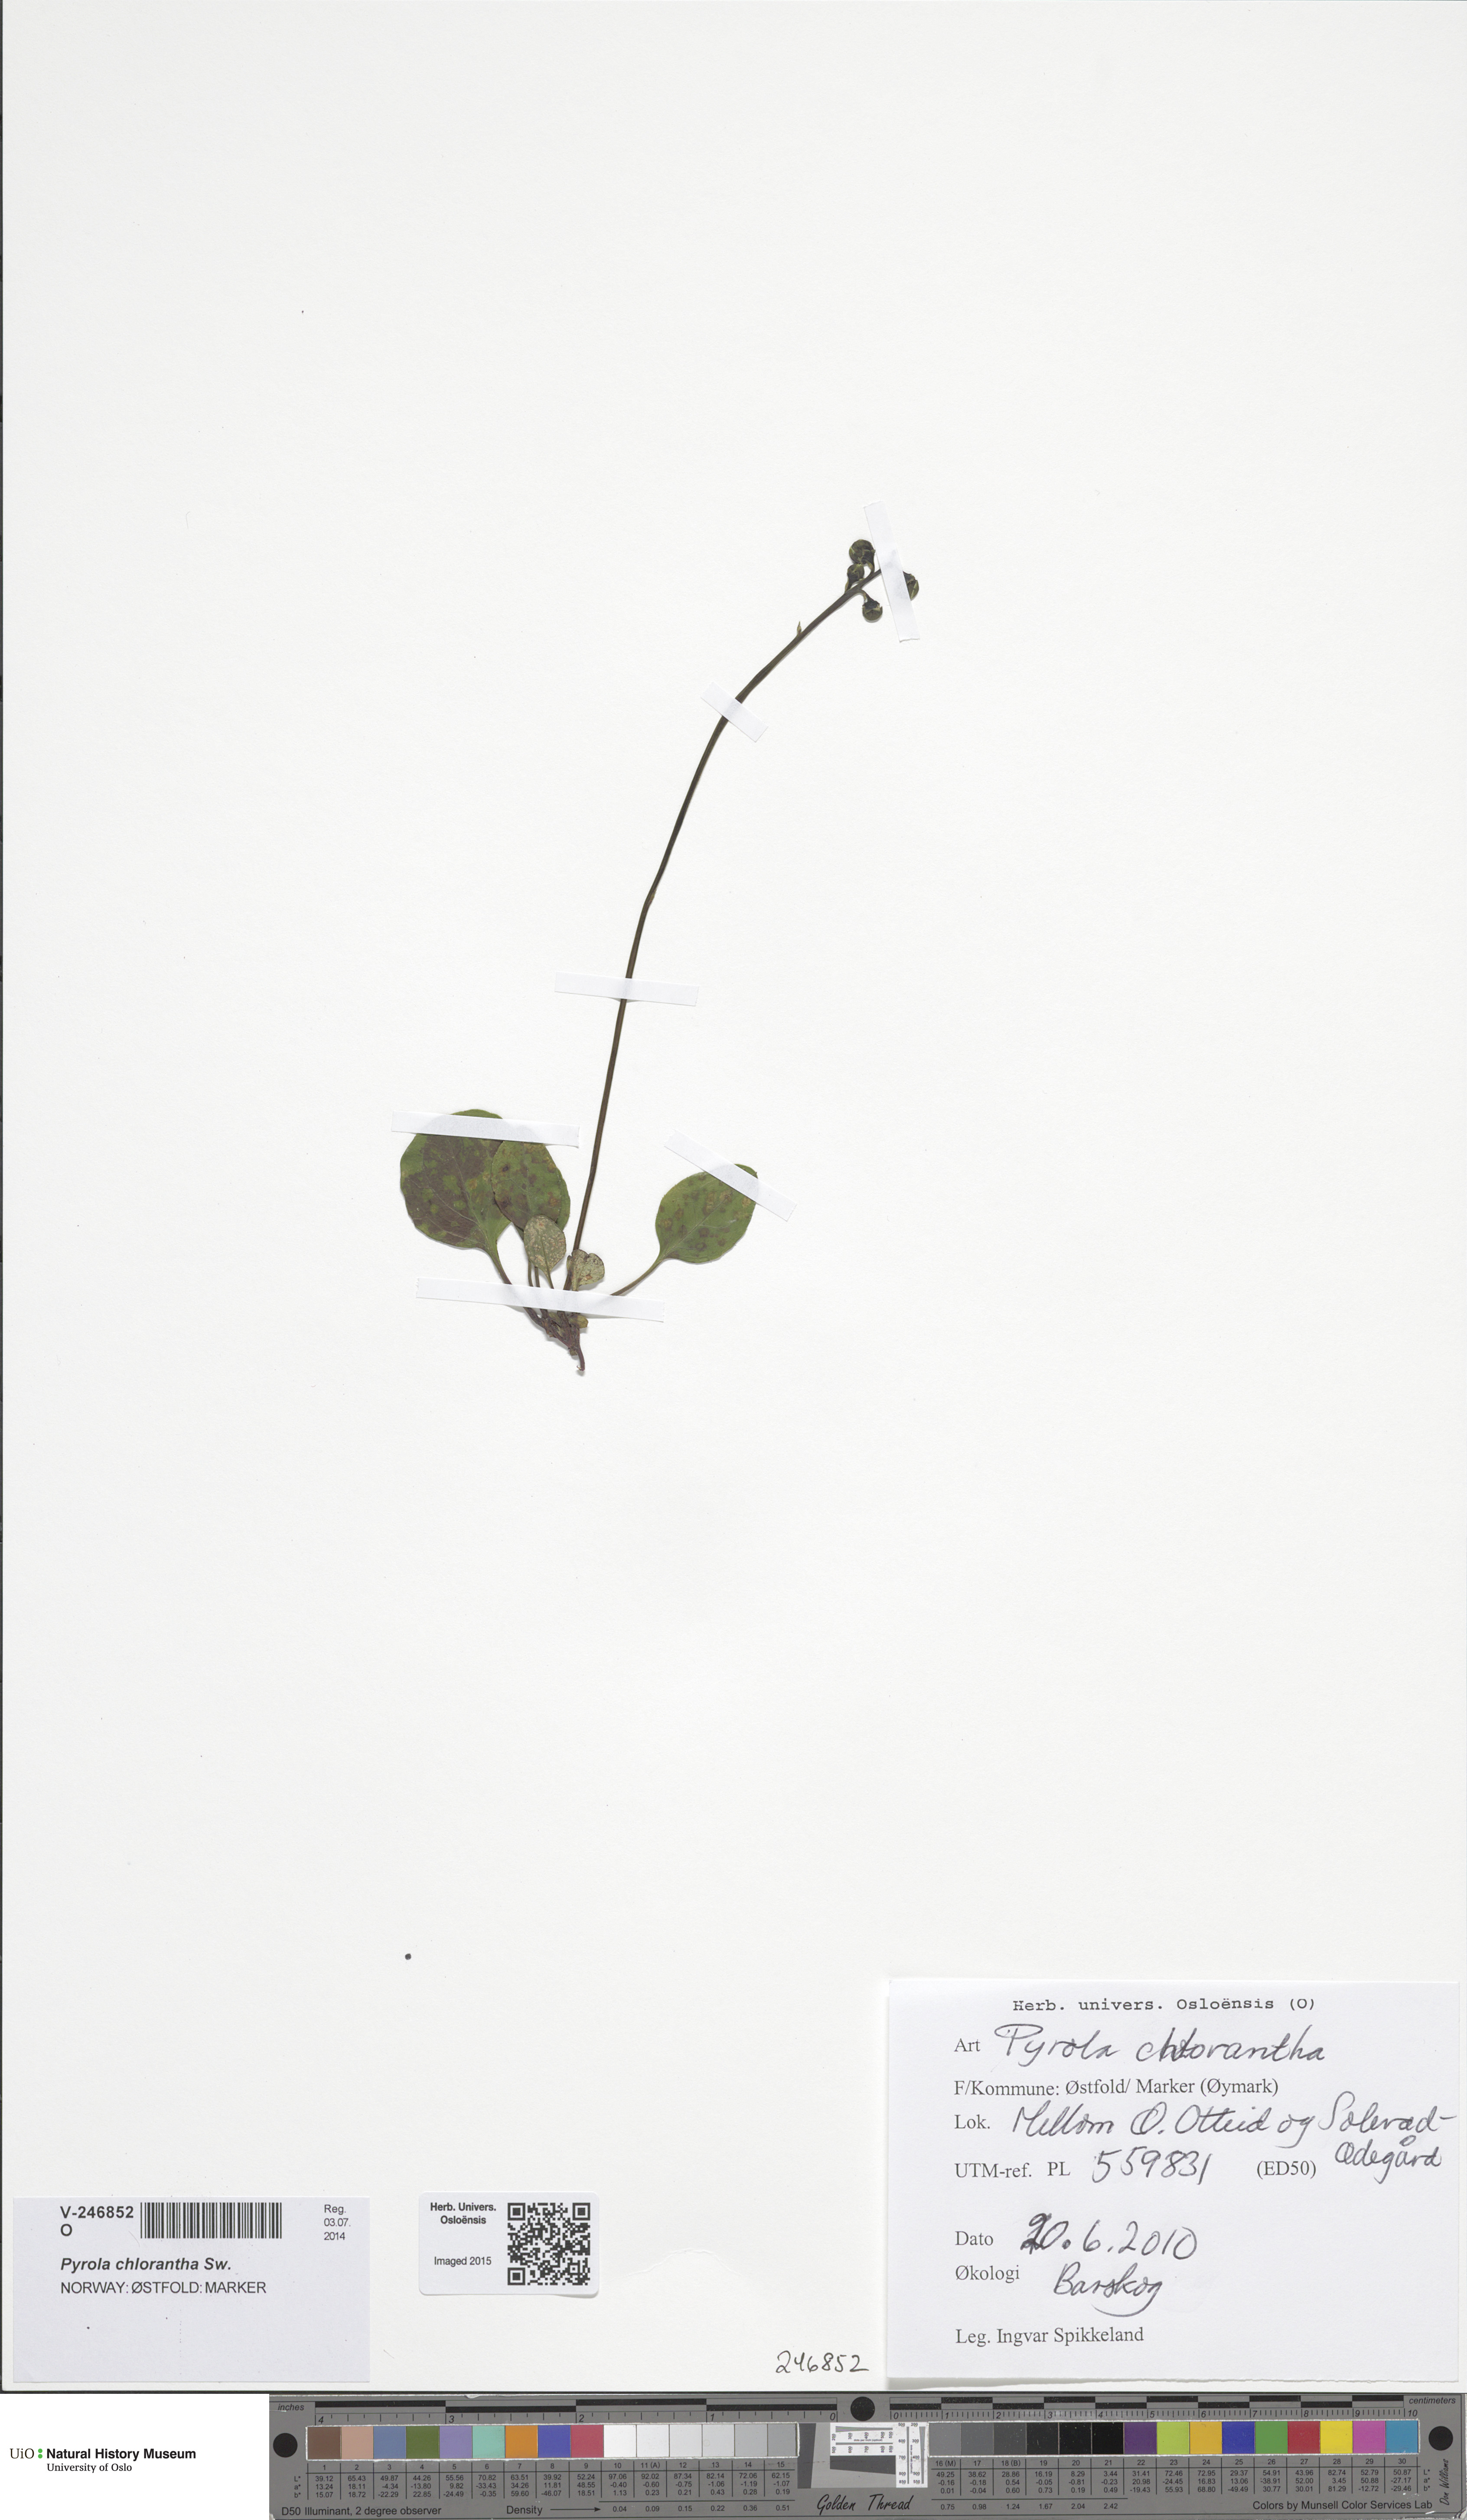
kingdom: Plantae
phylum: Tracheophyta
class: Magnoliopsida
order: Ericales
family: Ericaceae
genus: Pyrola
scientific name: Pyrola chlorantha
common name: Green wintergreen
